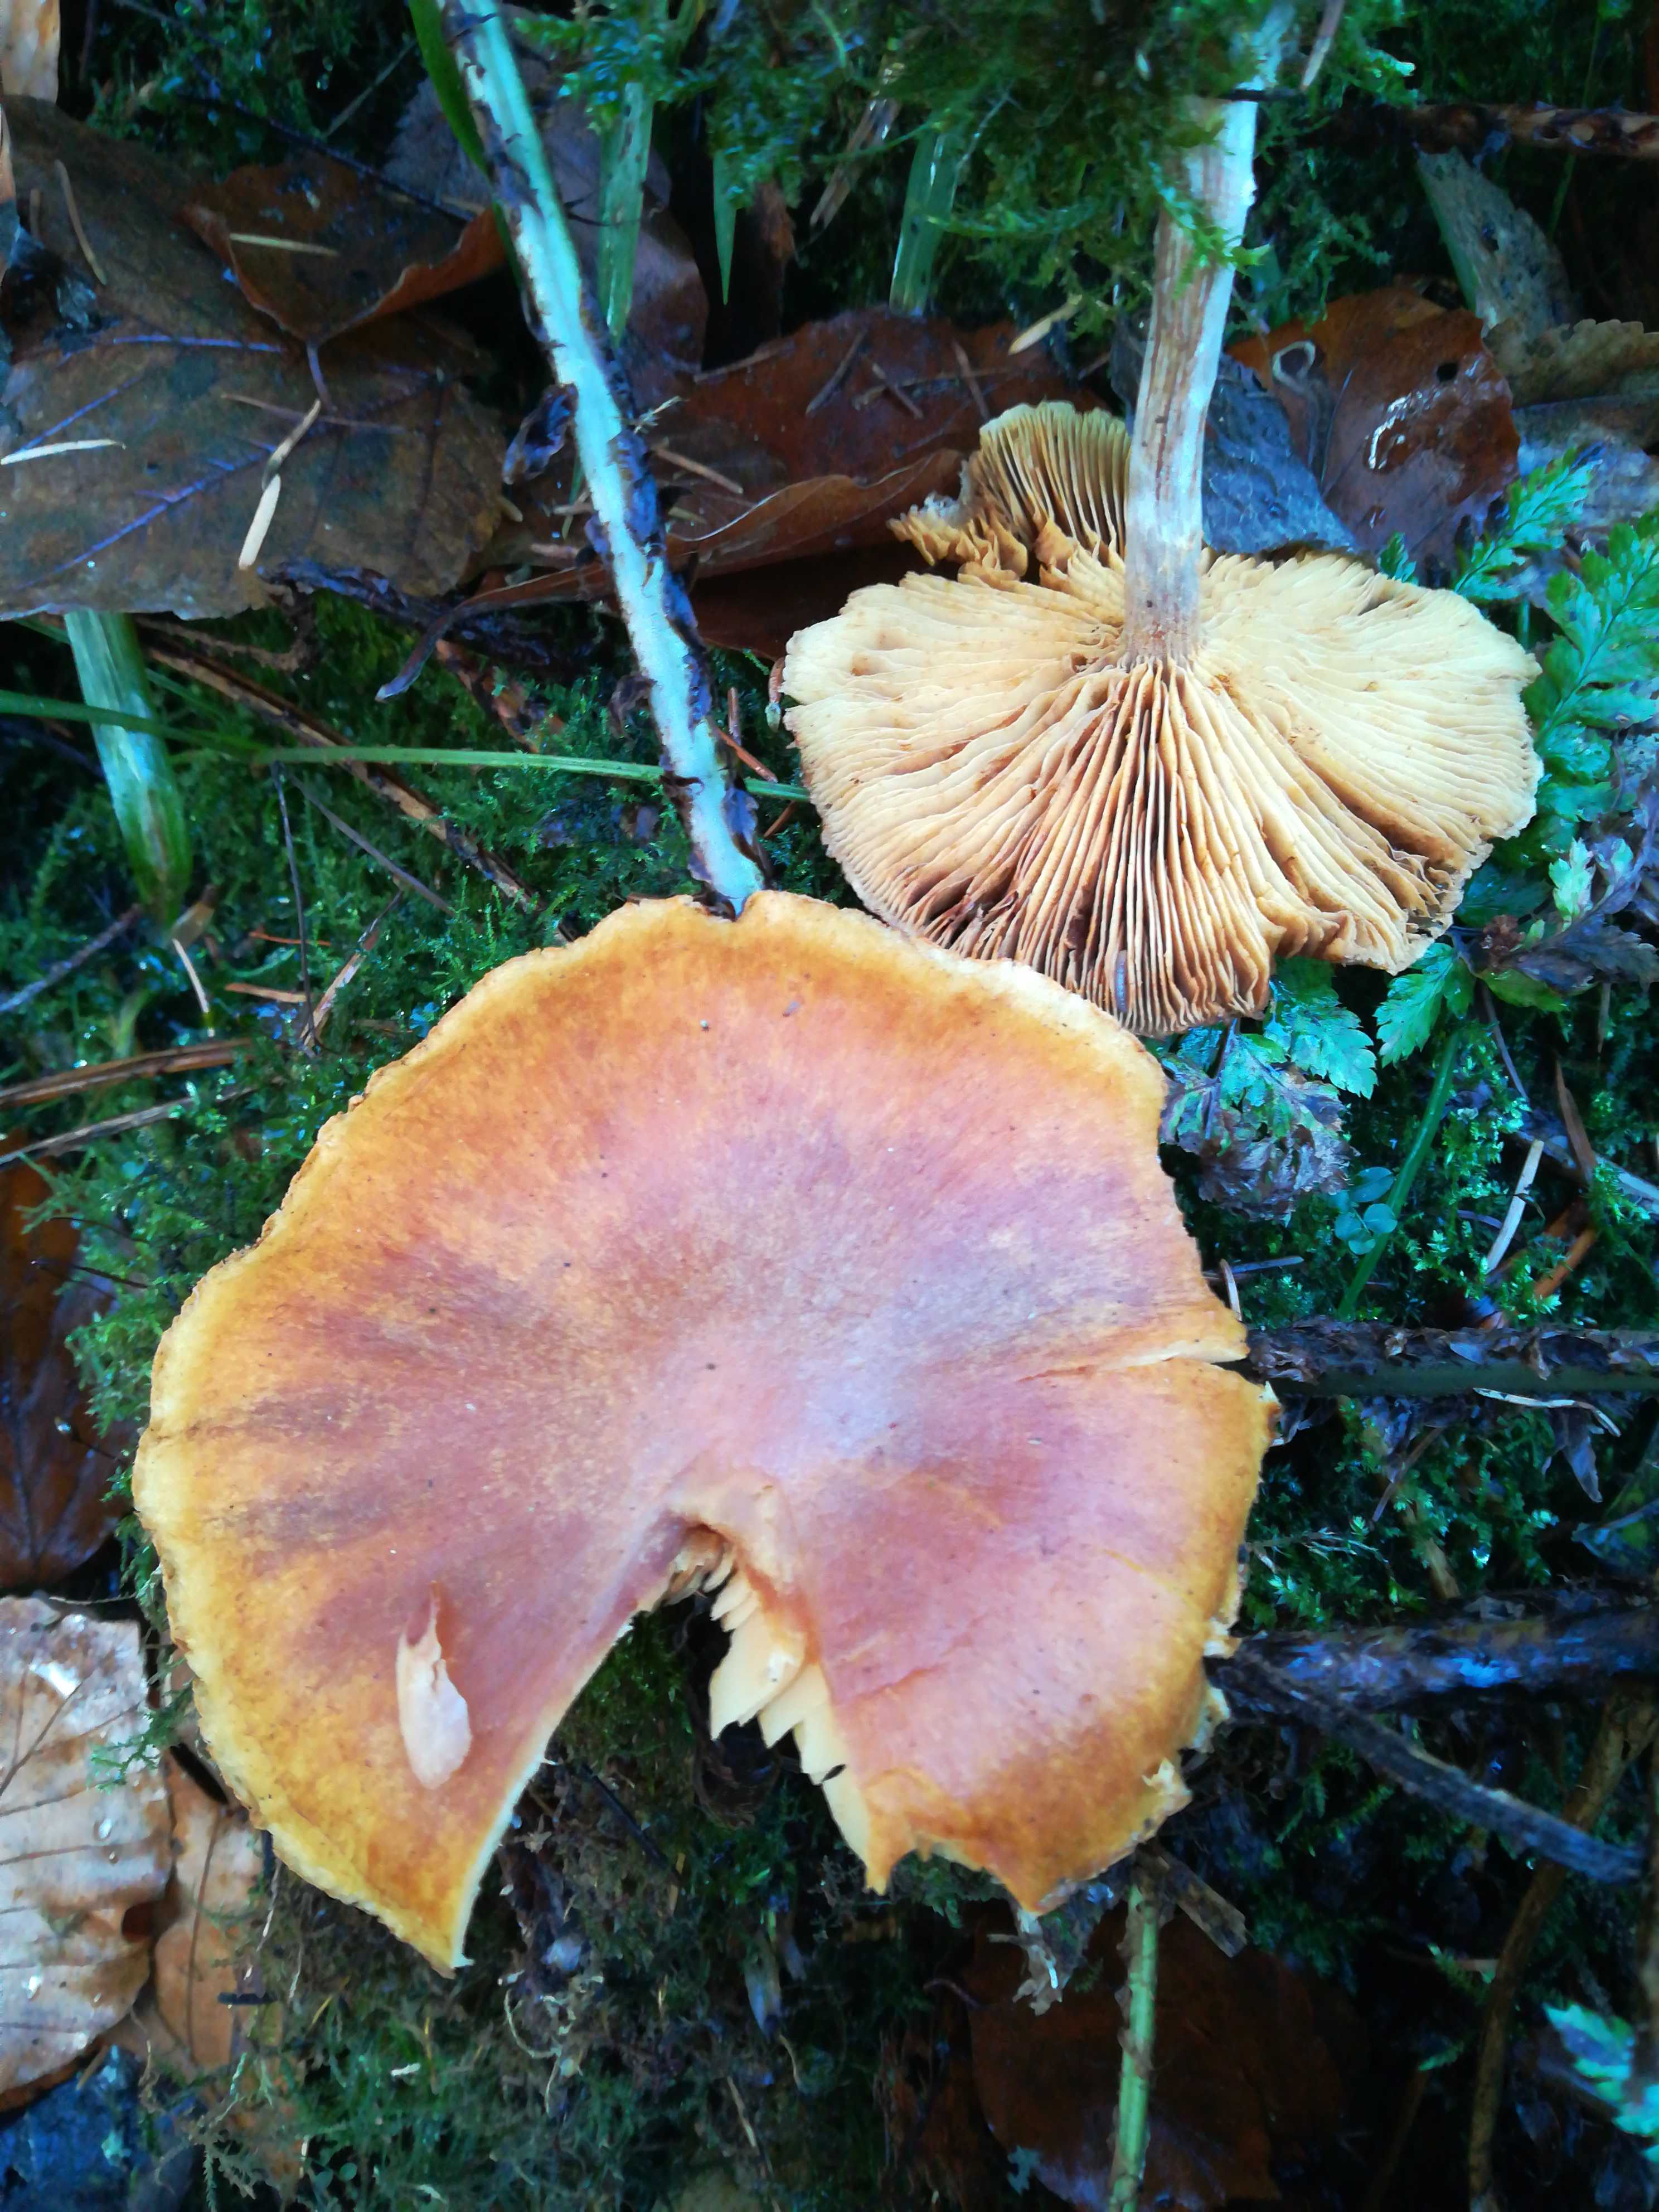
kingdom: Fungi
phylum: Basidiomycota
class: Agaricomycetes
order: Agaricales
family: Hymenogastraceae
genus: Gymnopilus
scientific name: Gymnopilus penetrans
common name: plettet flammehat
